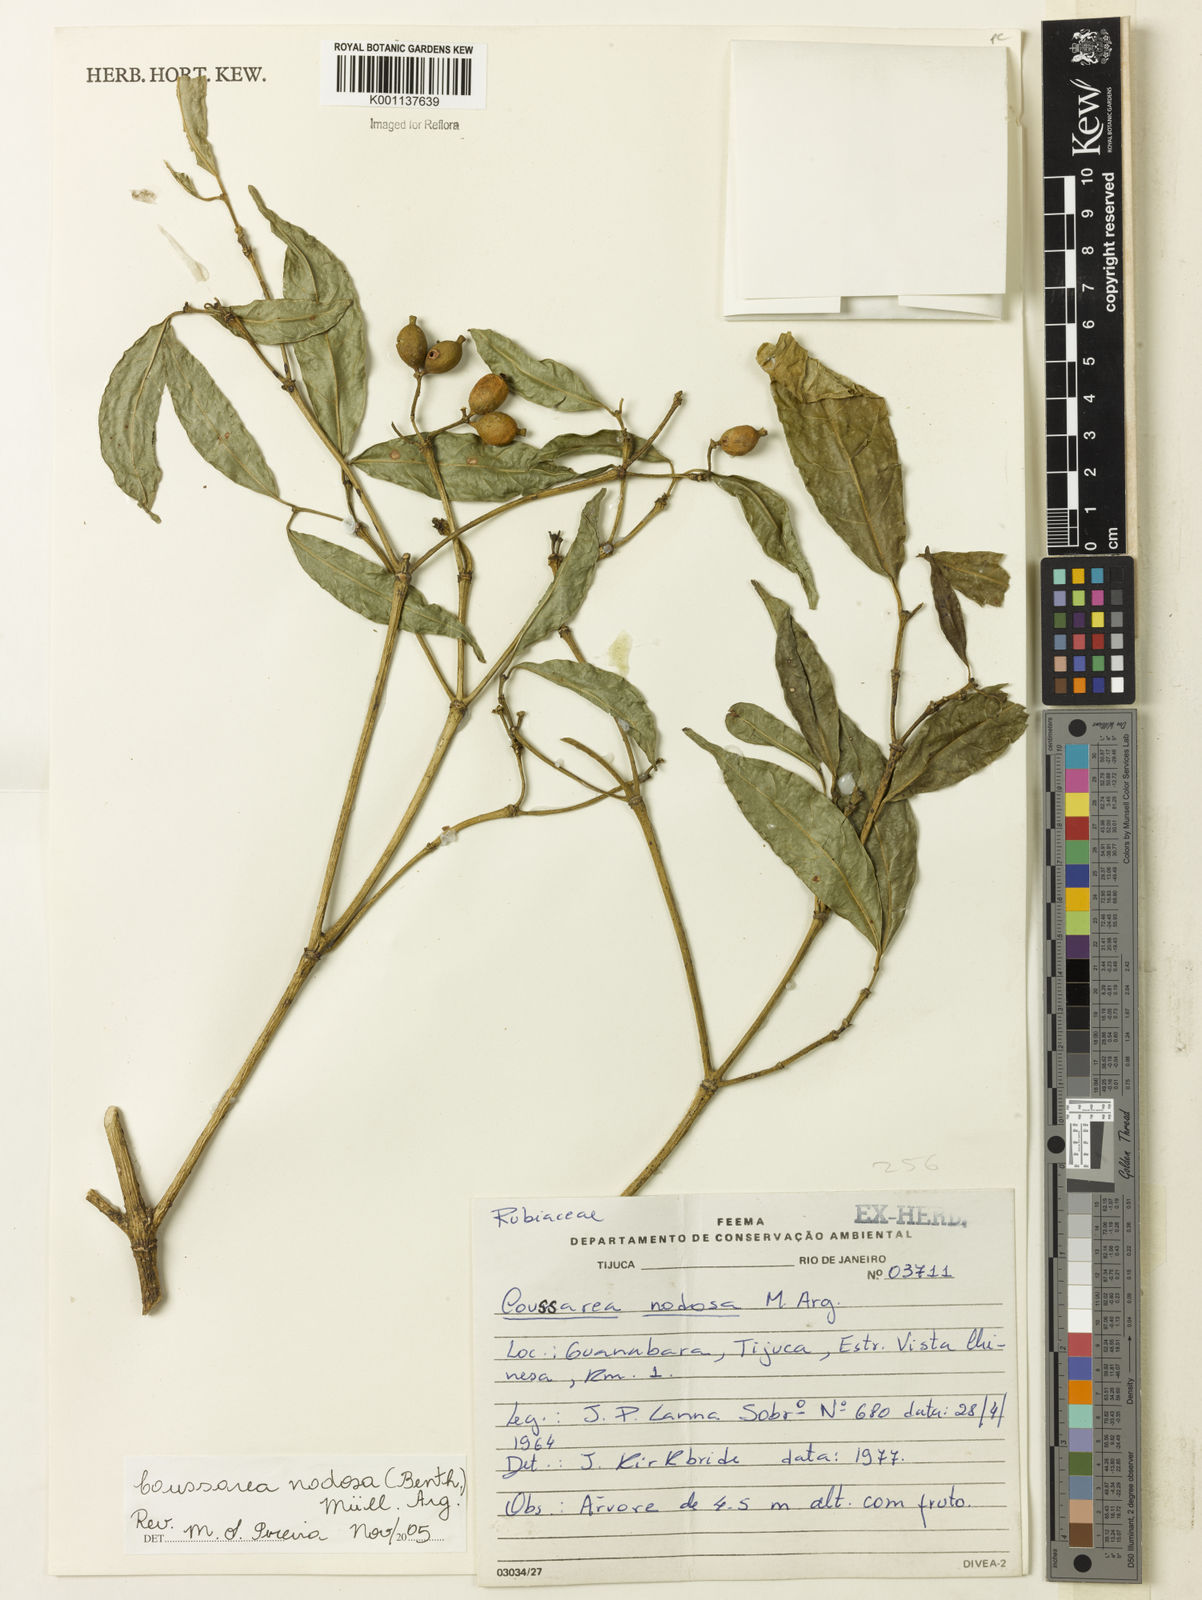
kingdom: Plantae
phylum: Tracheophyta
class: Magnoliopsida
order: Gentianales
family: Rubiaceae
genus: Coussarea
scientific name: Coussarea
